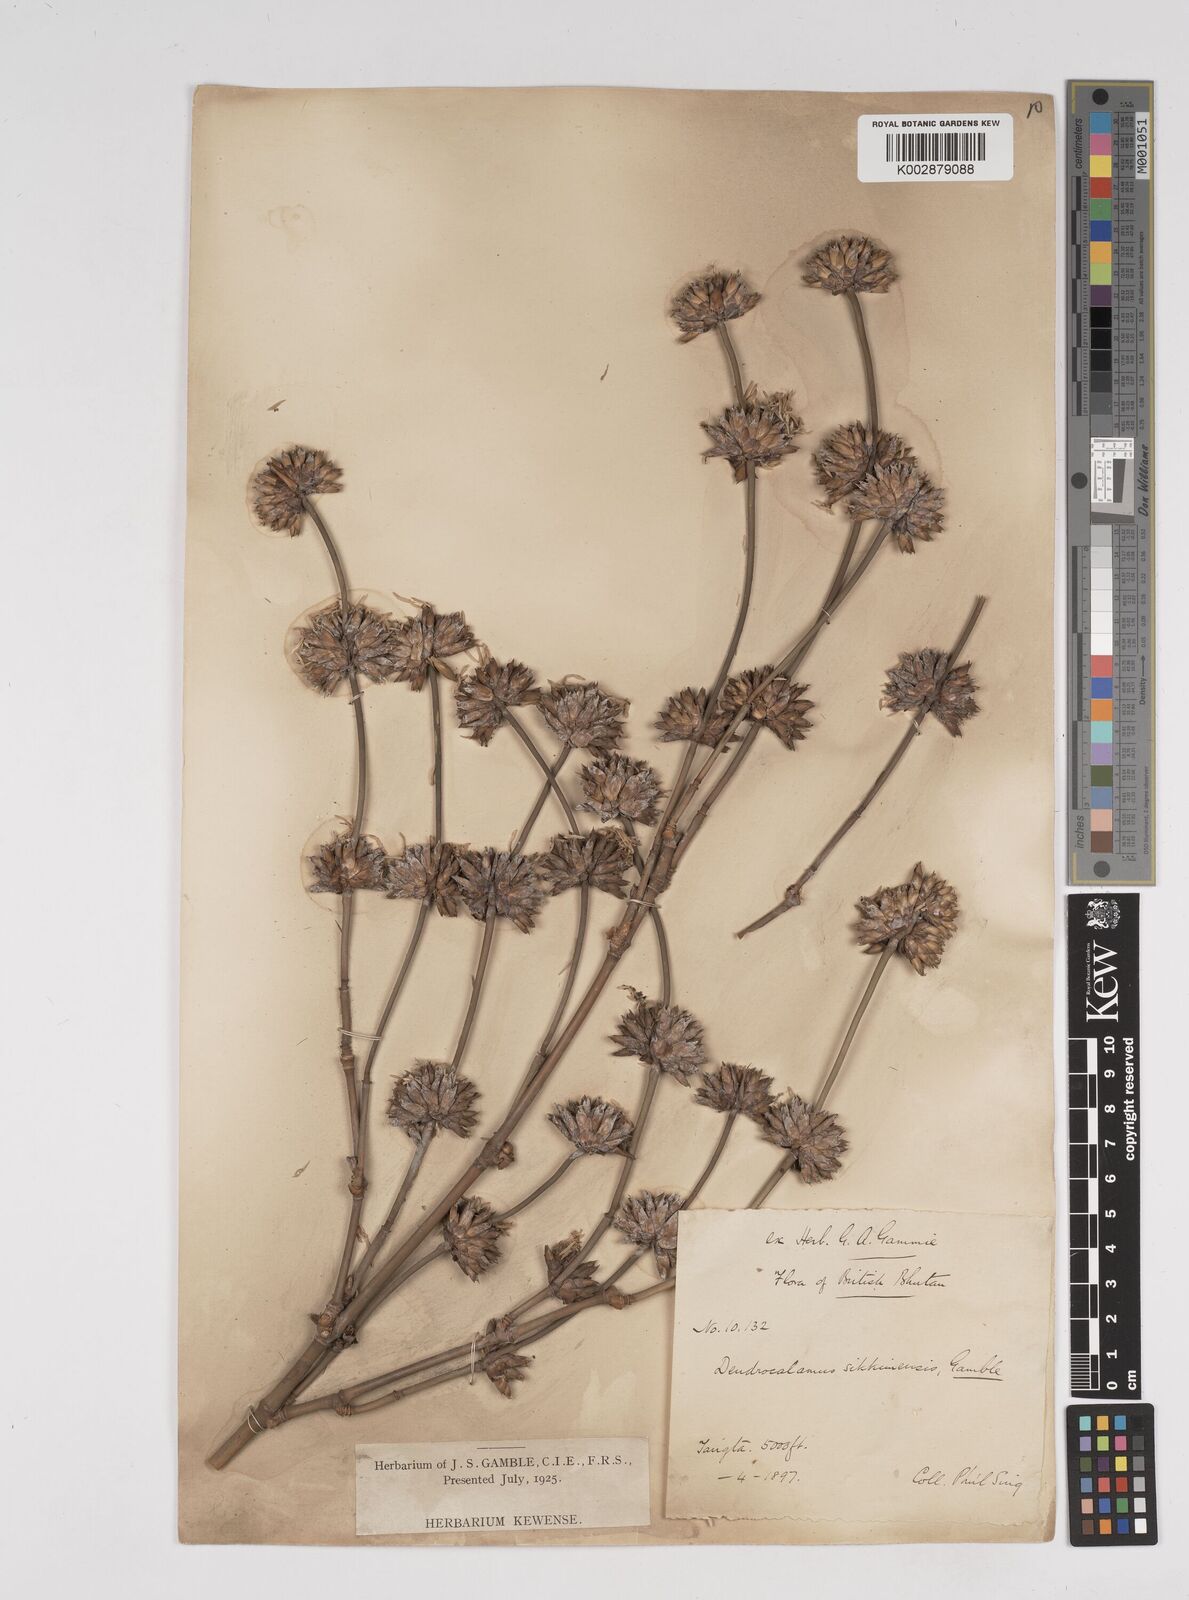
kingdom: Plantae
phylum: Tracheophyta
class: Liliopsida
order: Poales
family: Poaceae
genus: Dendrocalamus
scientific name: Dendrocalamus sikkimensis
